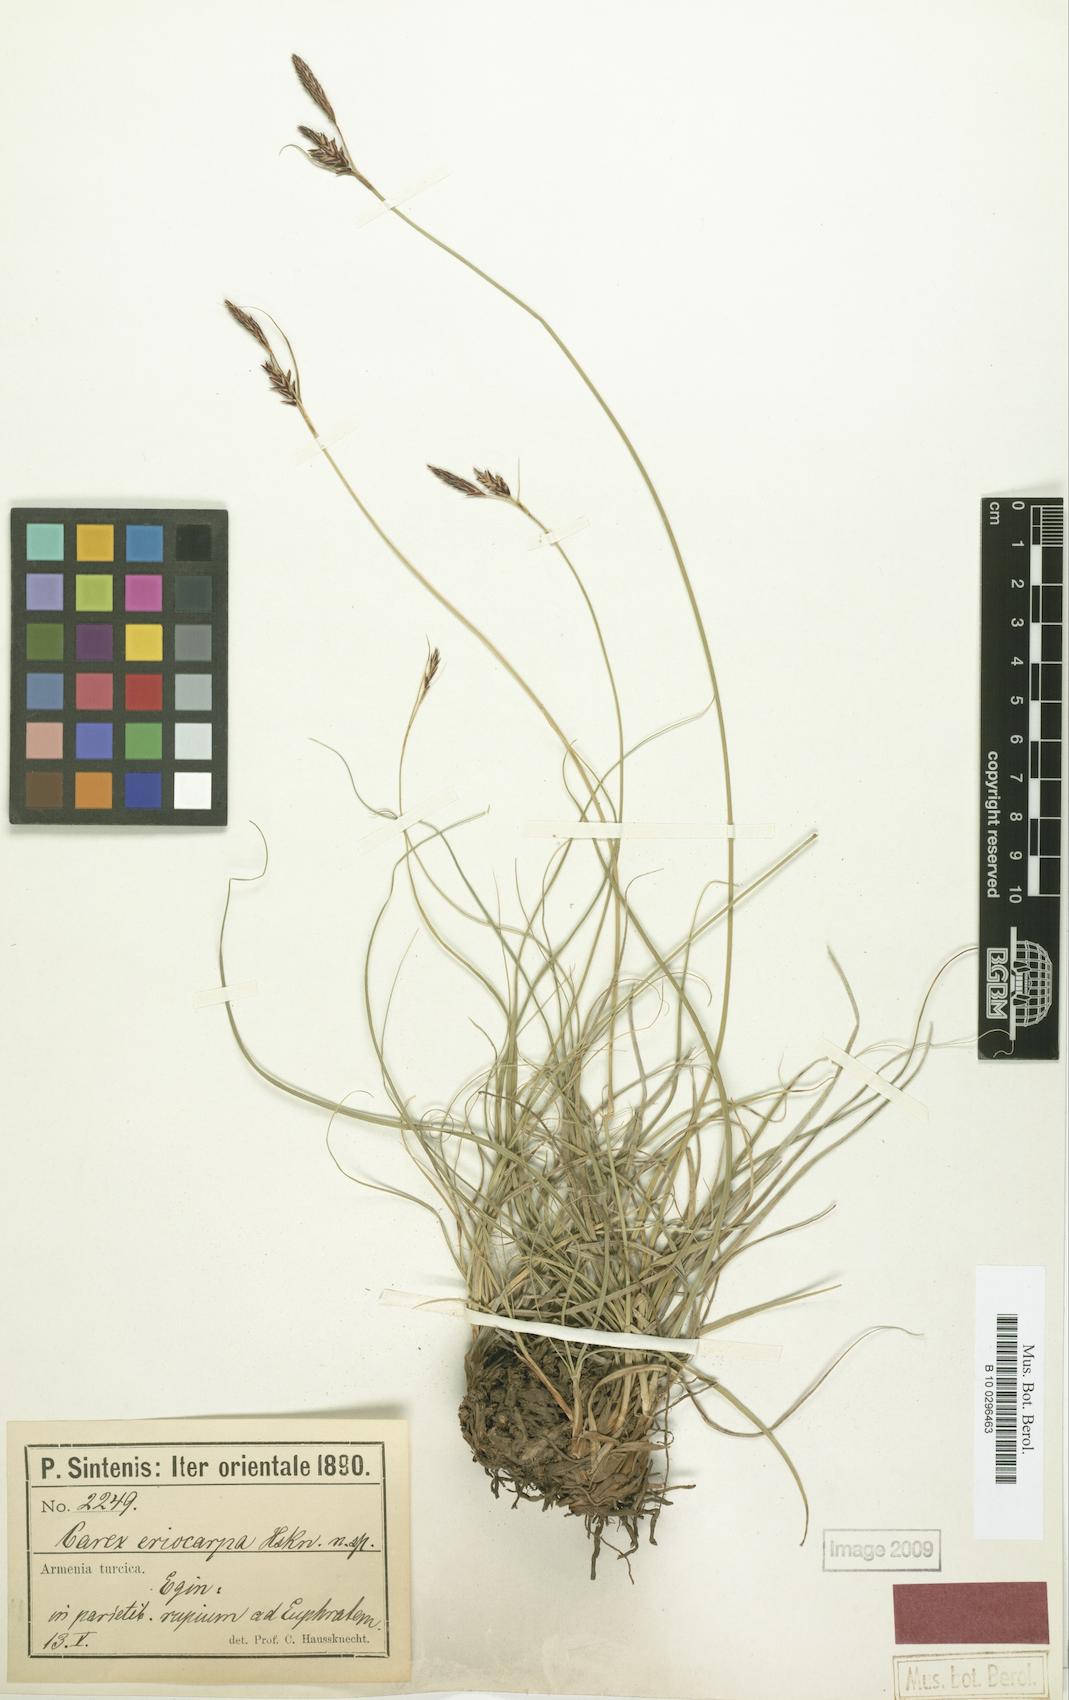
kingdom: Plantae
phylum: Tracheophyta
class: Liliopsida
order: Poales
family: Cyperaceae
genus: Carex
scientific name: Carex eriocarpa
